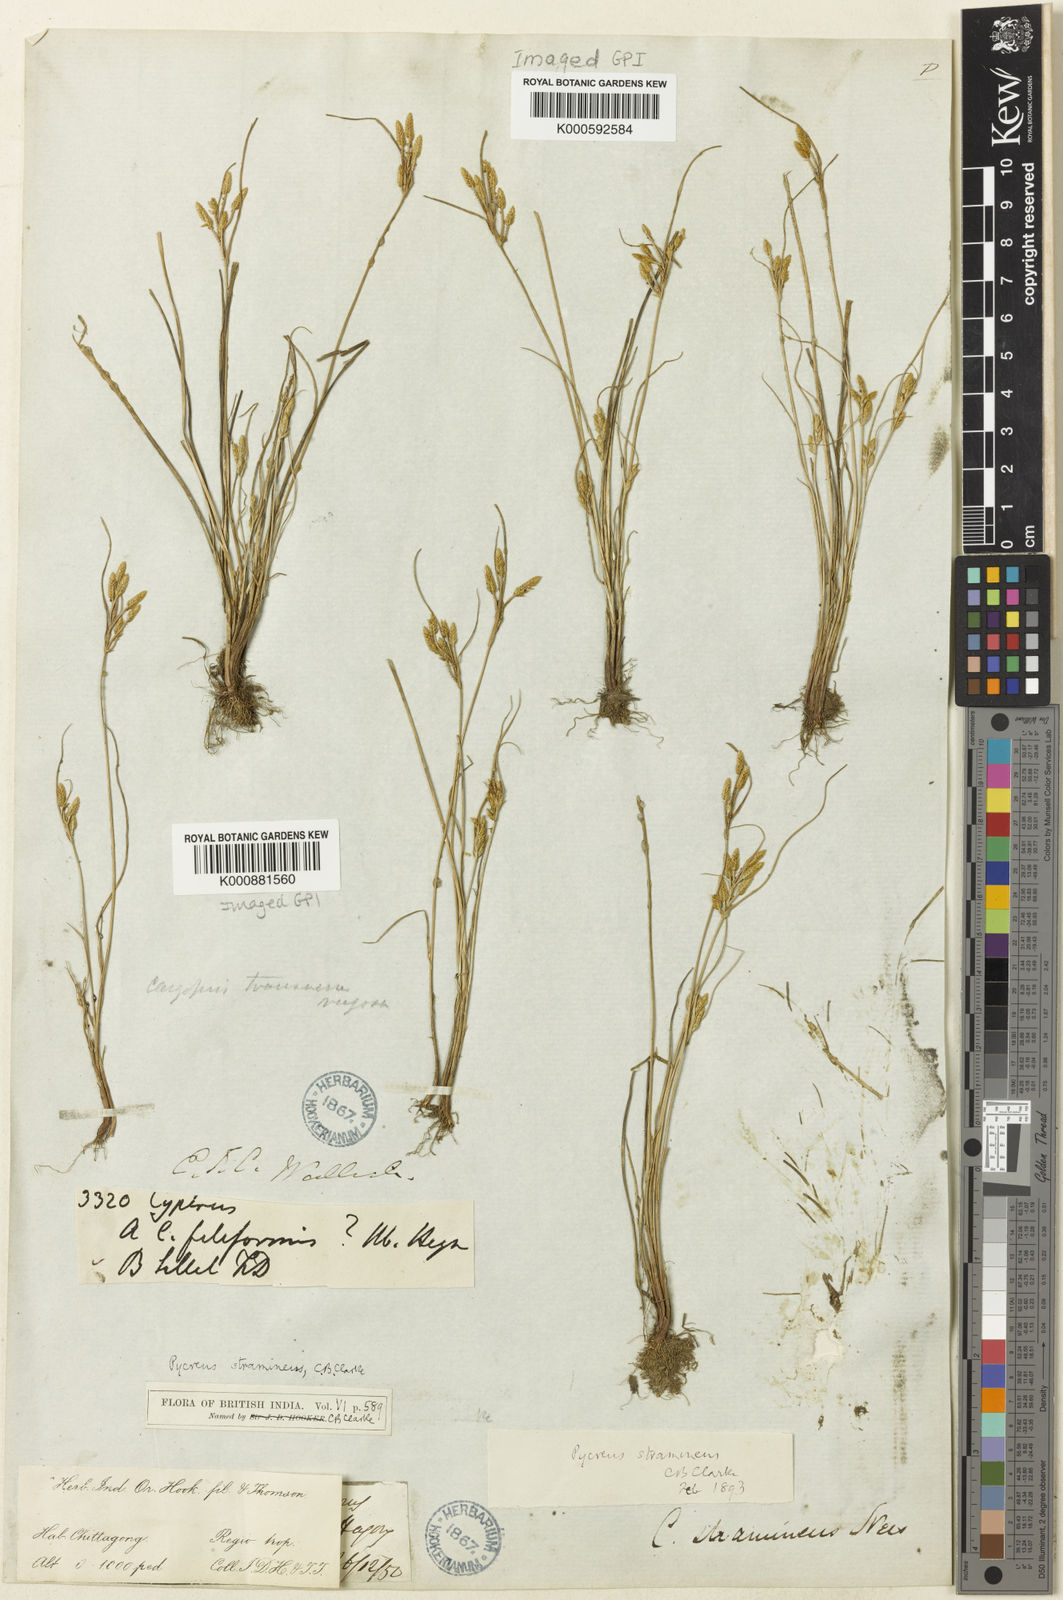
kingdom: Plantae
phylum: Tracheophyta
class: Liliopsida
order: Poales
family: Cyperaceae
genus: Cyperus
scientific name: Cyperus substramineus
